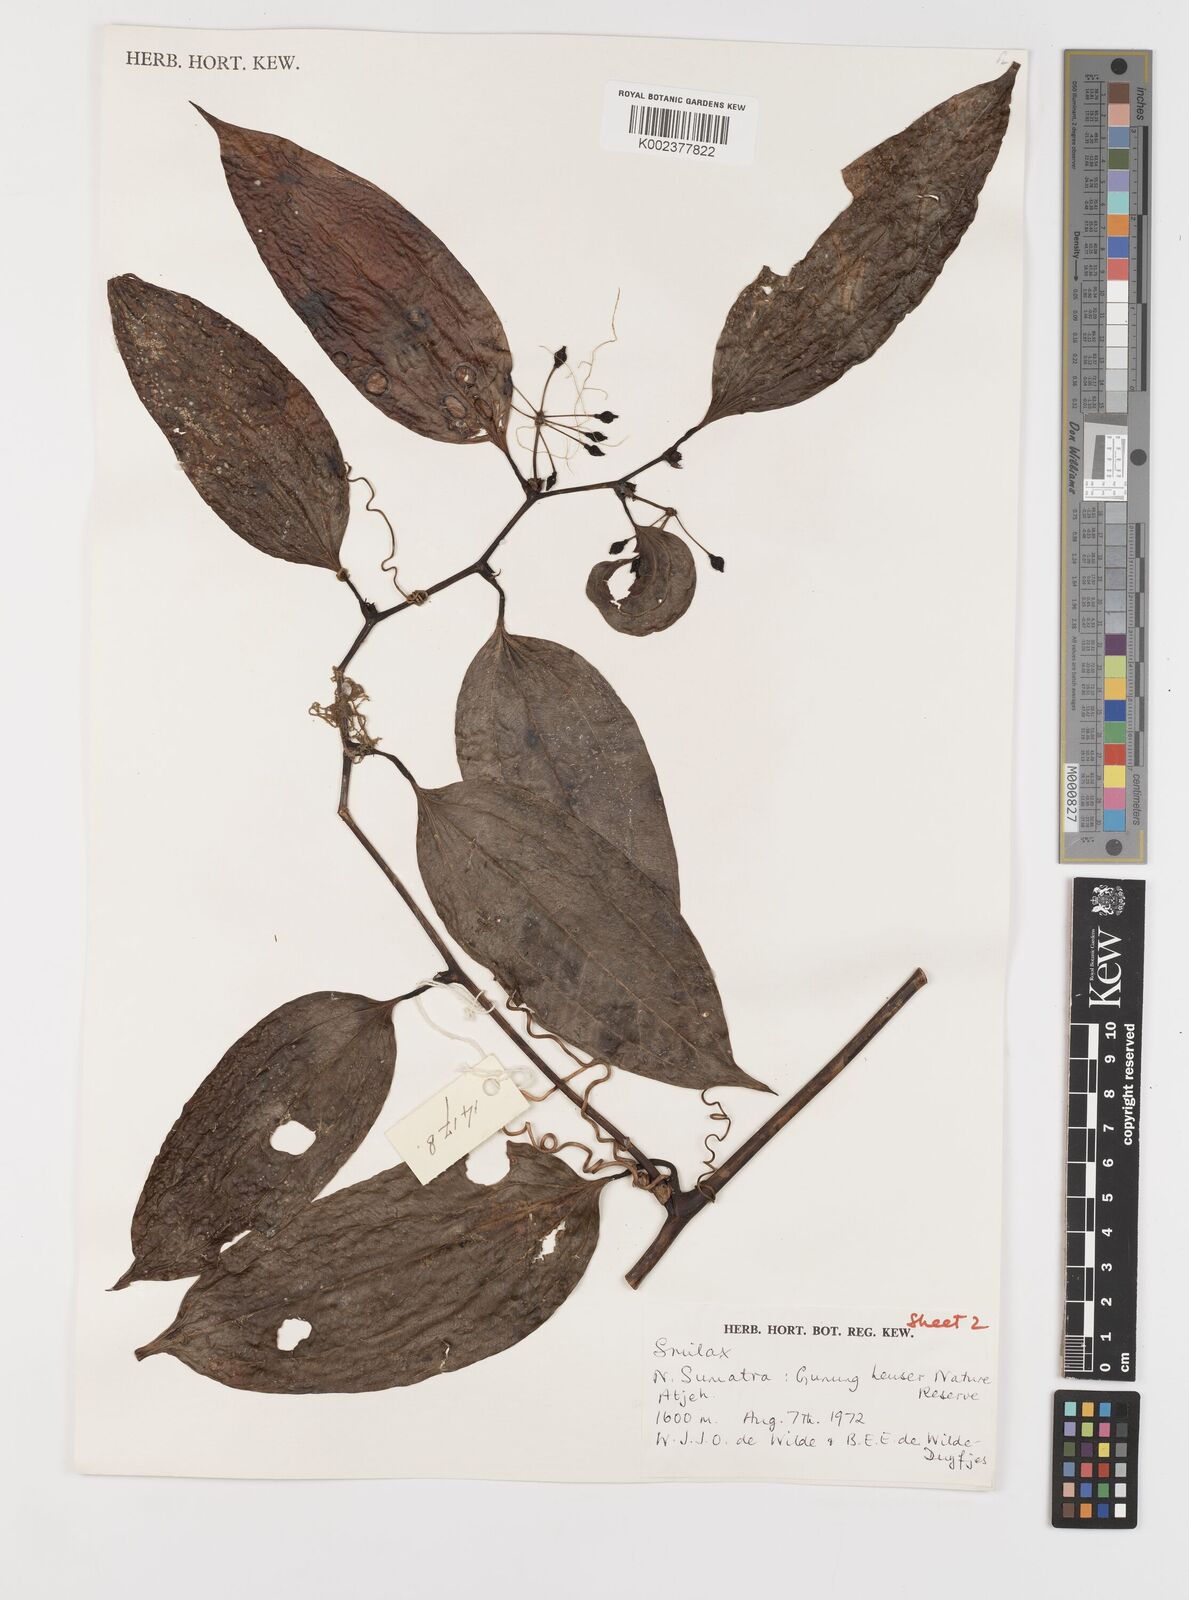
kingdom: Plantae
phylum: Tracheophyta
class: Liliopsida
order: Liliales
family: Smilacaceae
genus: Smilax
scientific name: Smilax
